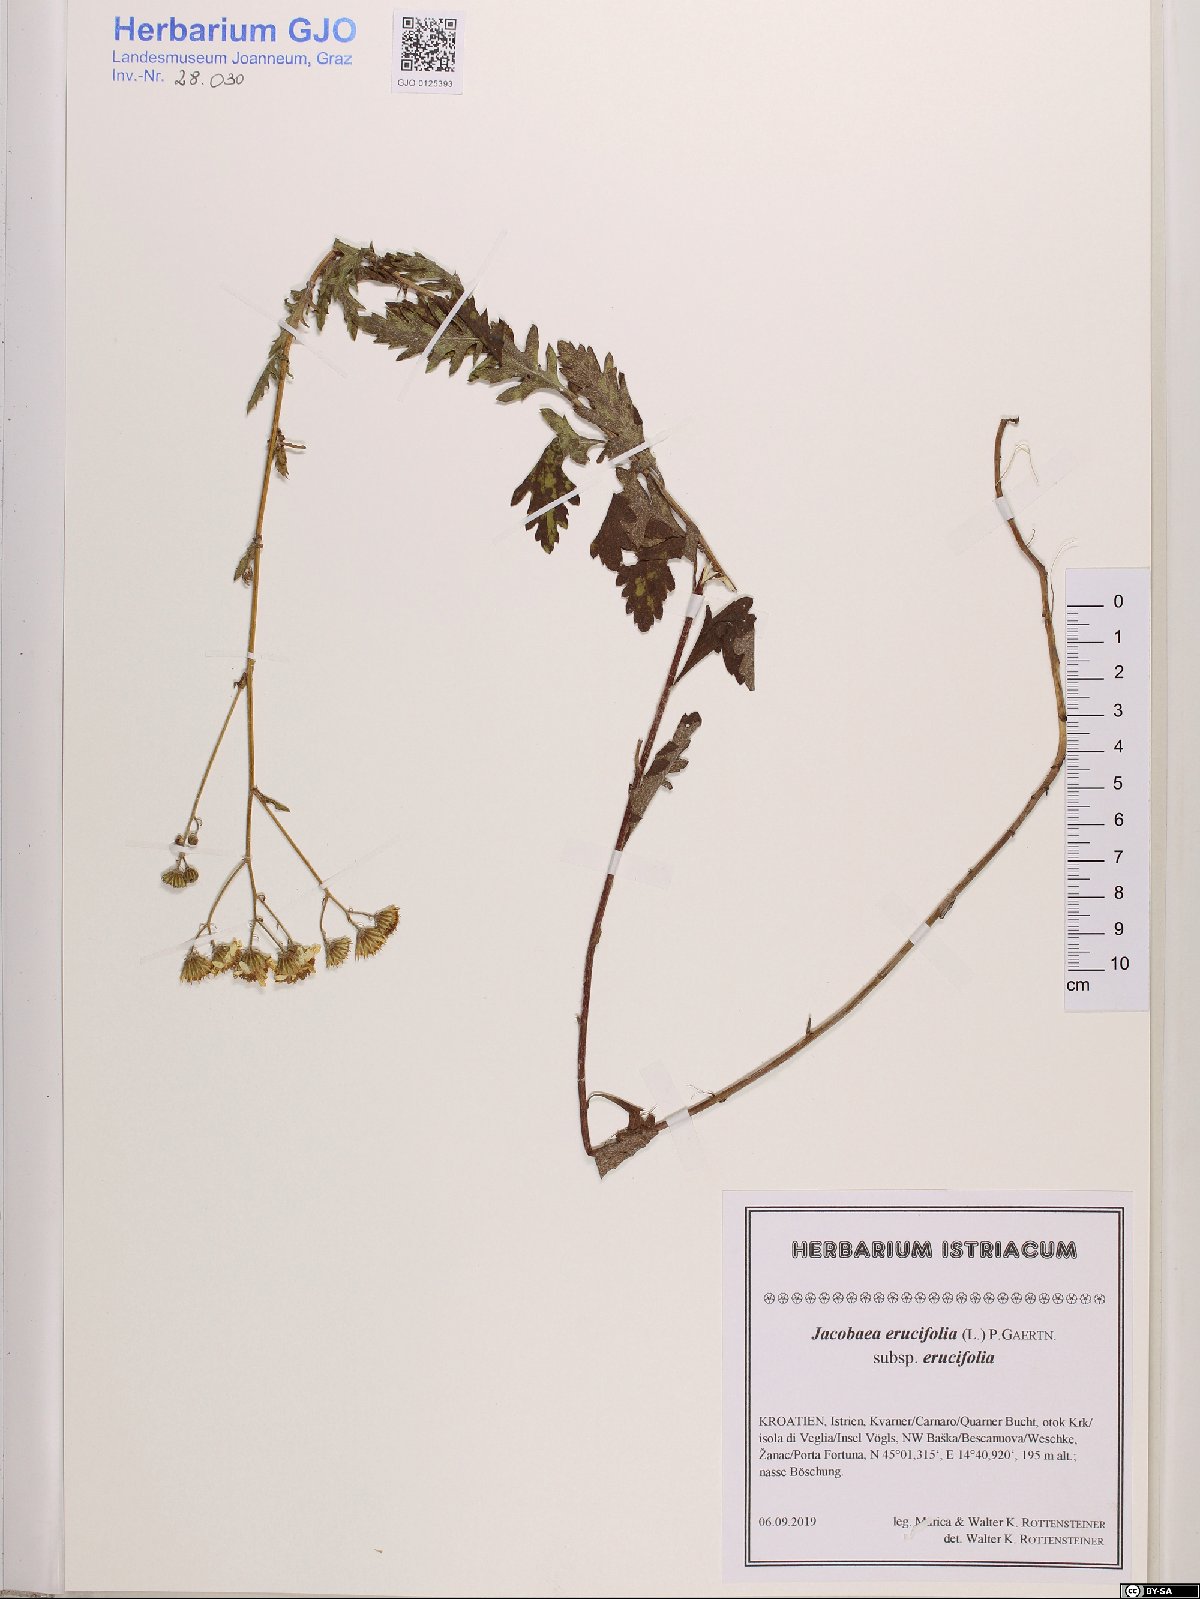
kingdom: Plantae
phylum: Tracheophyta
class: Magnoliopsida
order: Asterales
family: Asteraceae
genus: Jacobaea
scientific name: Jacobaea erucifolia
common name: Hoary ragwort
